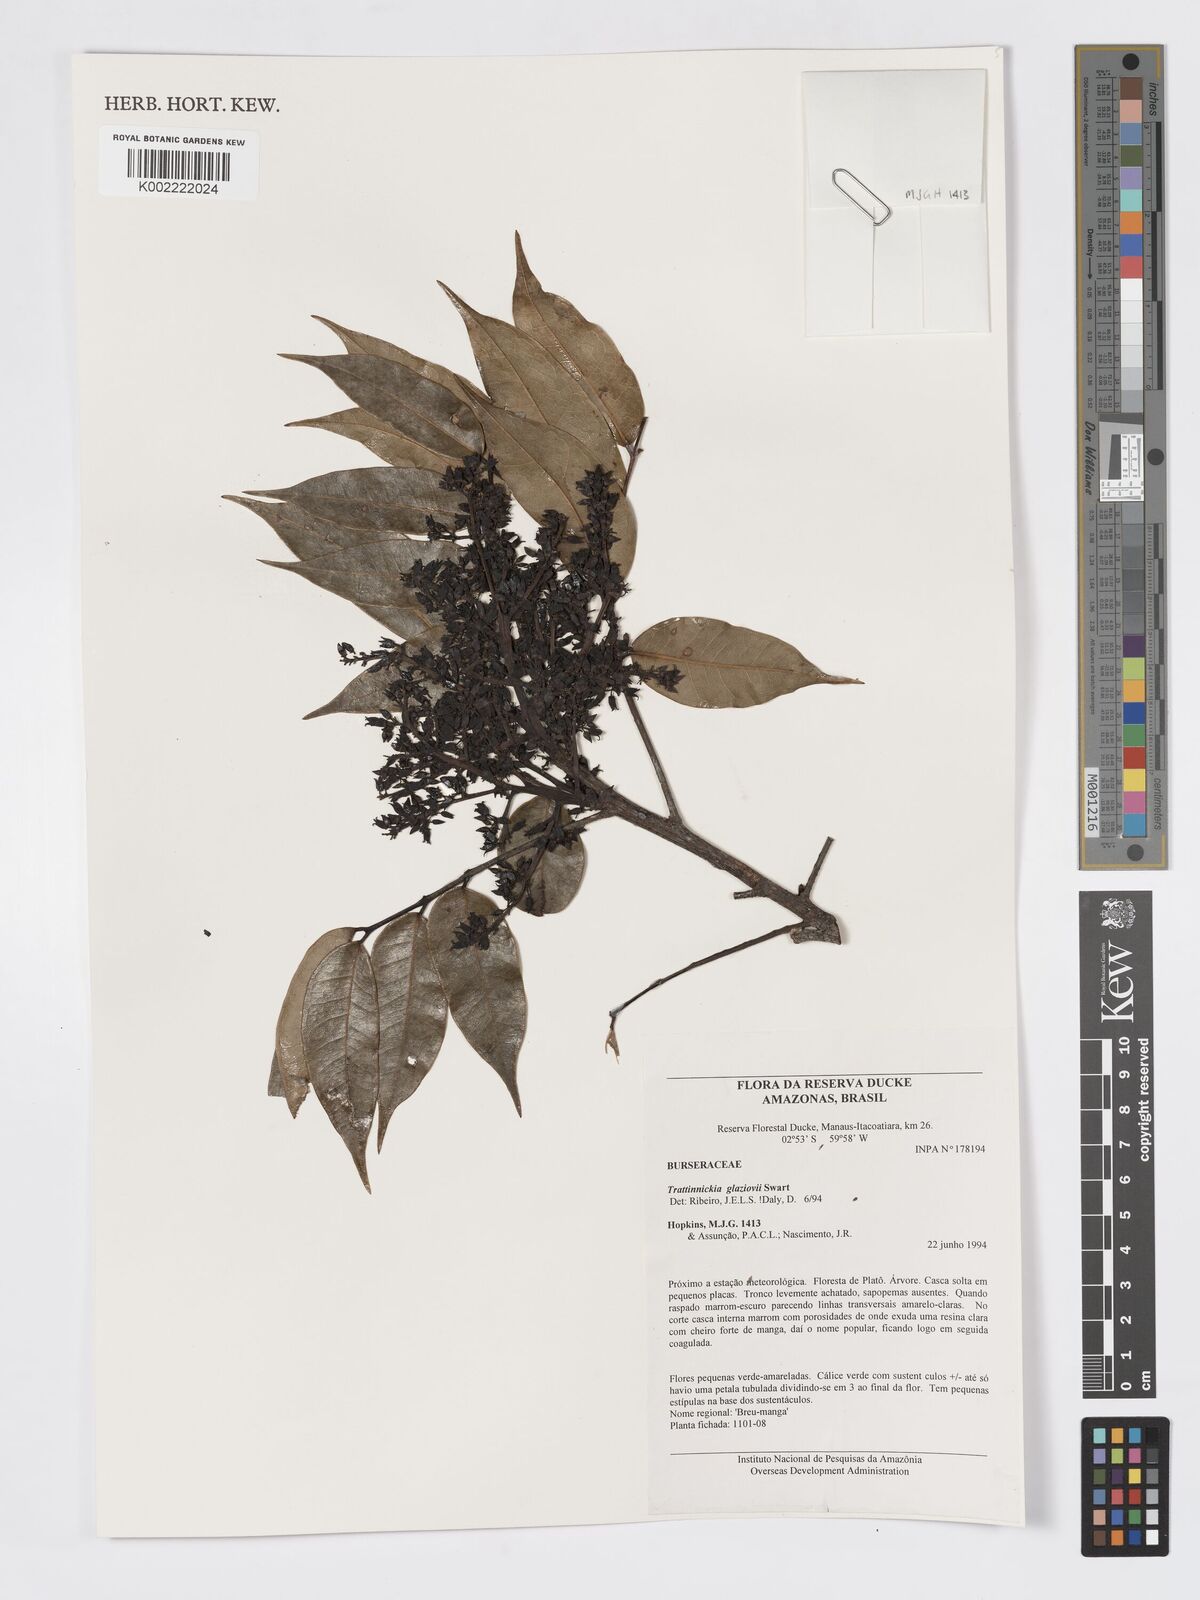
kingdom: Plantae
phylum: Tracheophyta
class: Magnoliopsida
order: Sapindales
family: Burseraceae
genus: Trattinnickia
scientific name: Trattinnickia glaziovii
